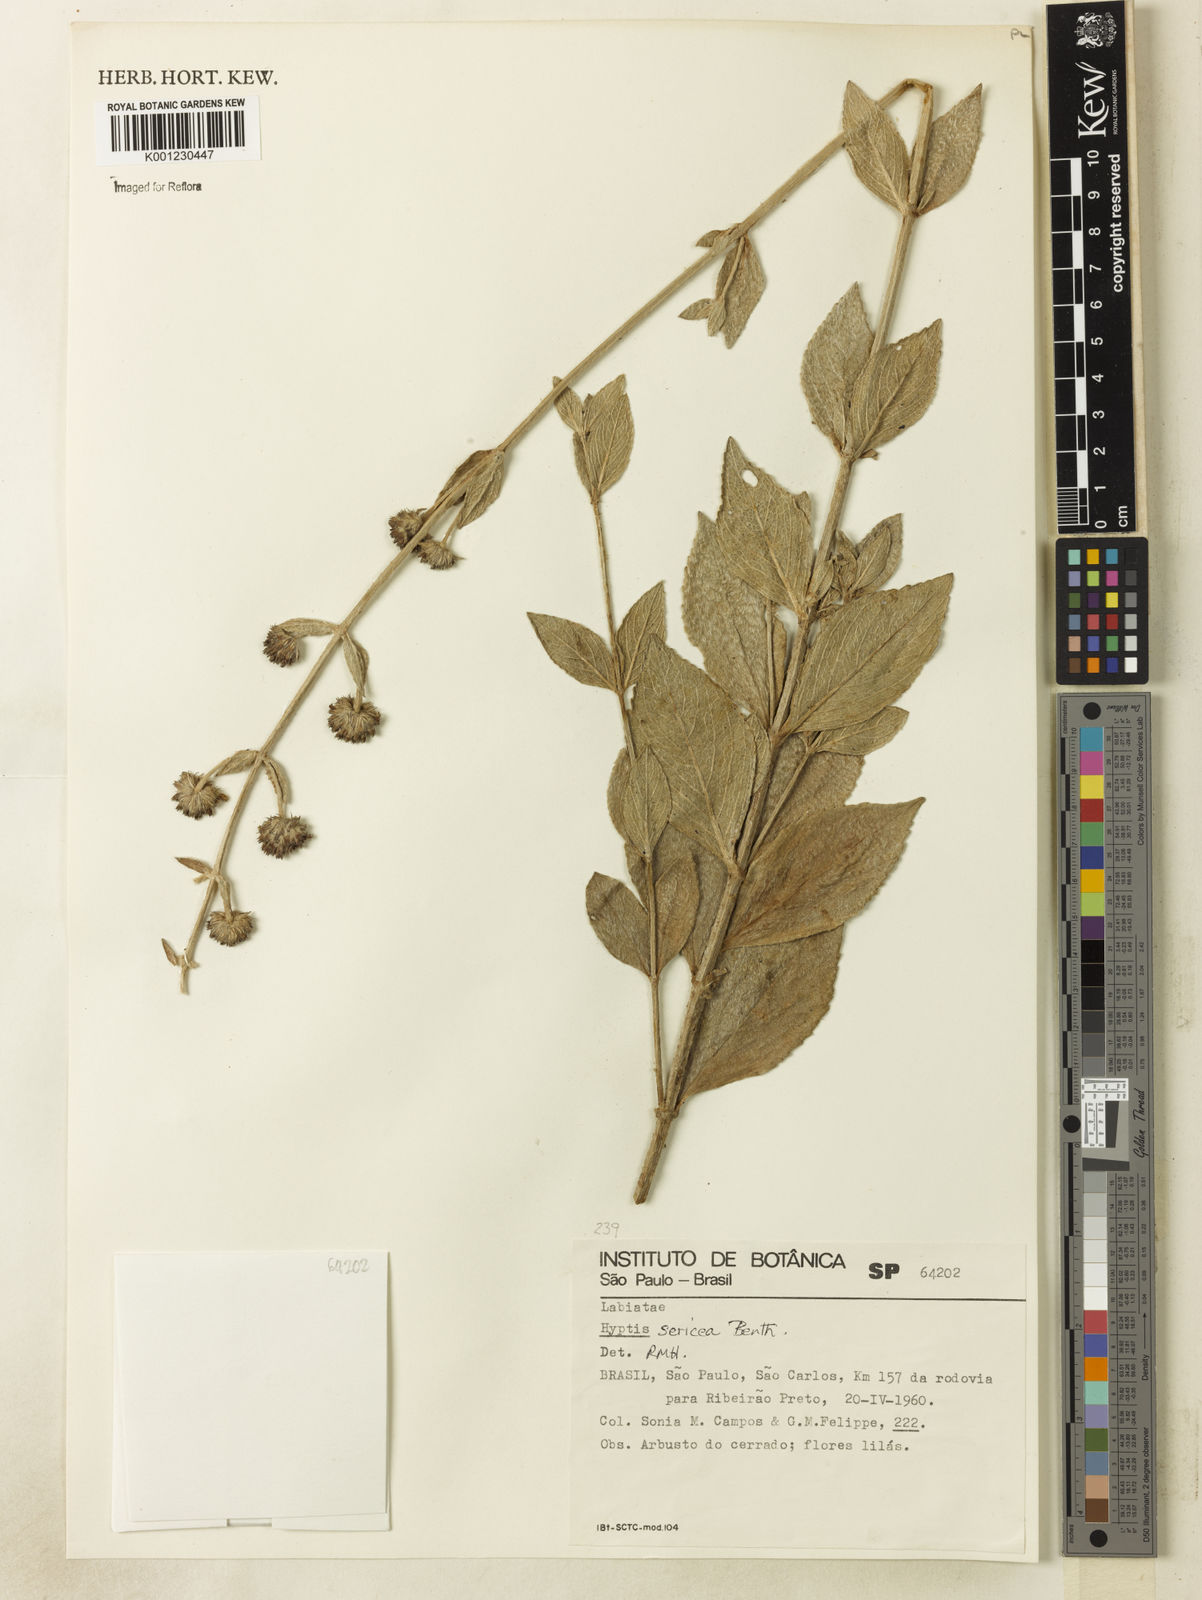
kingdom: Plantae
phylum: Tracheophyta
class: Magnoliopsida
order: Lamiales
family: Lamiaceae
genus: Hyptis
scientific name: Hyptis sericea
